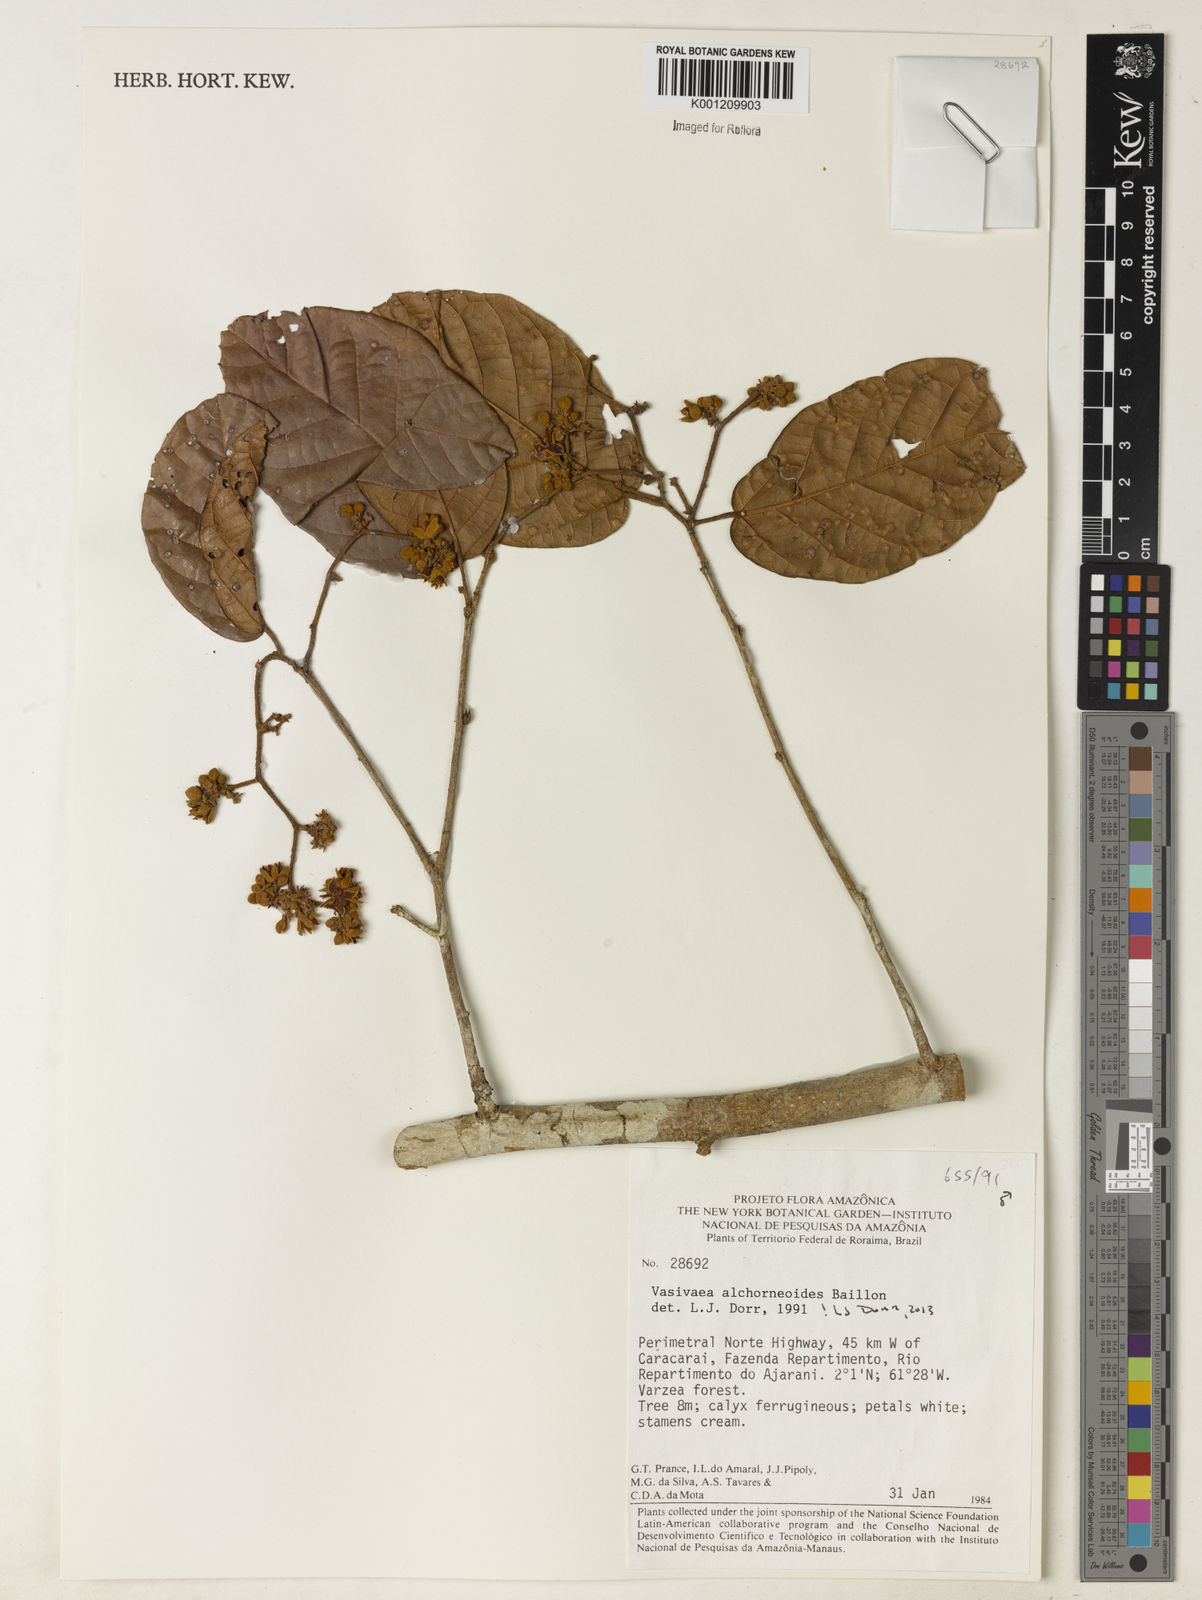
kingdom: Plantae
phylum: Tracheophyta
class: Magnoliopsida
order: Malvales
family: Malvaceae
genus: Vasivaea
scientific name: Vasivaea alchorneoides
